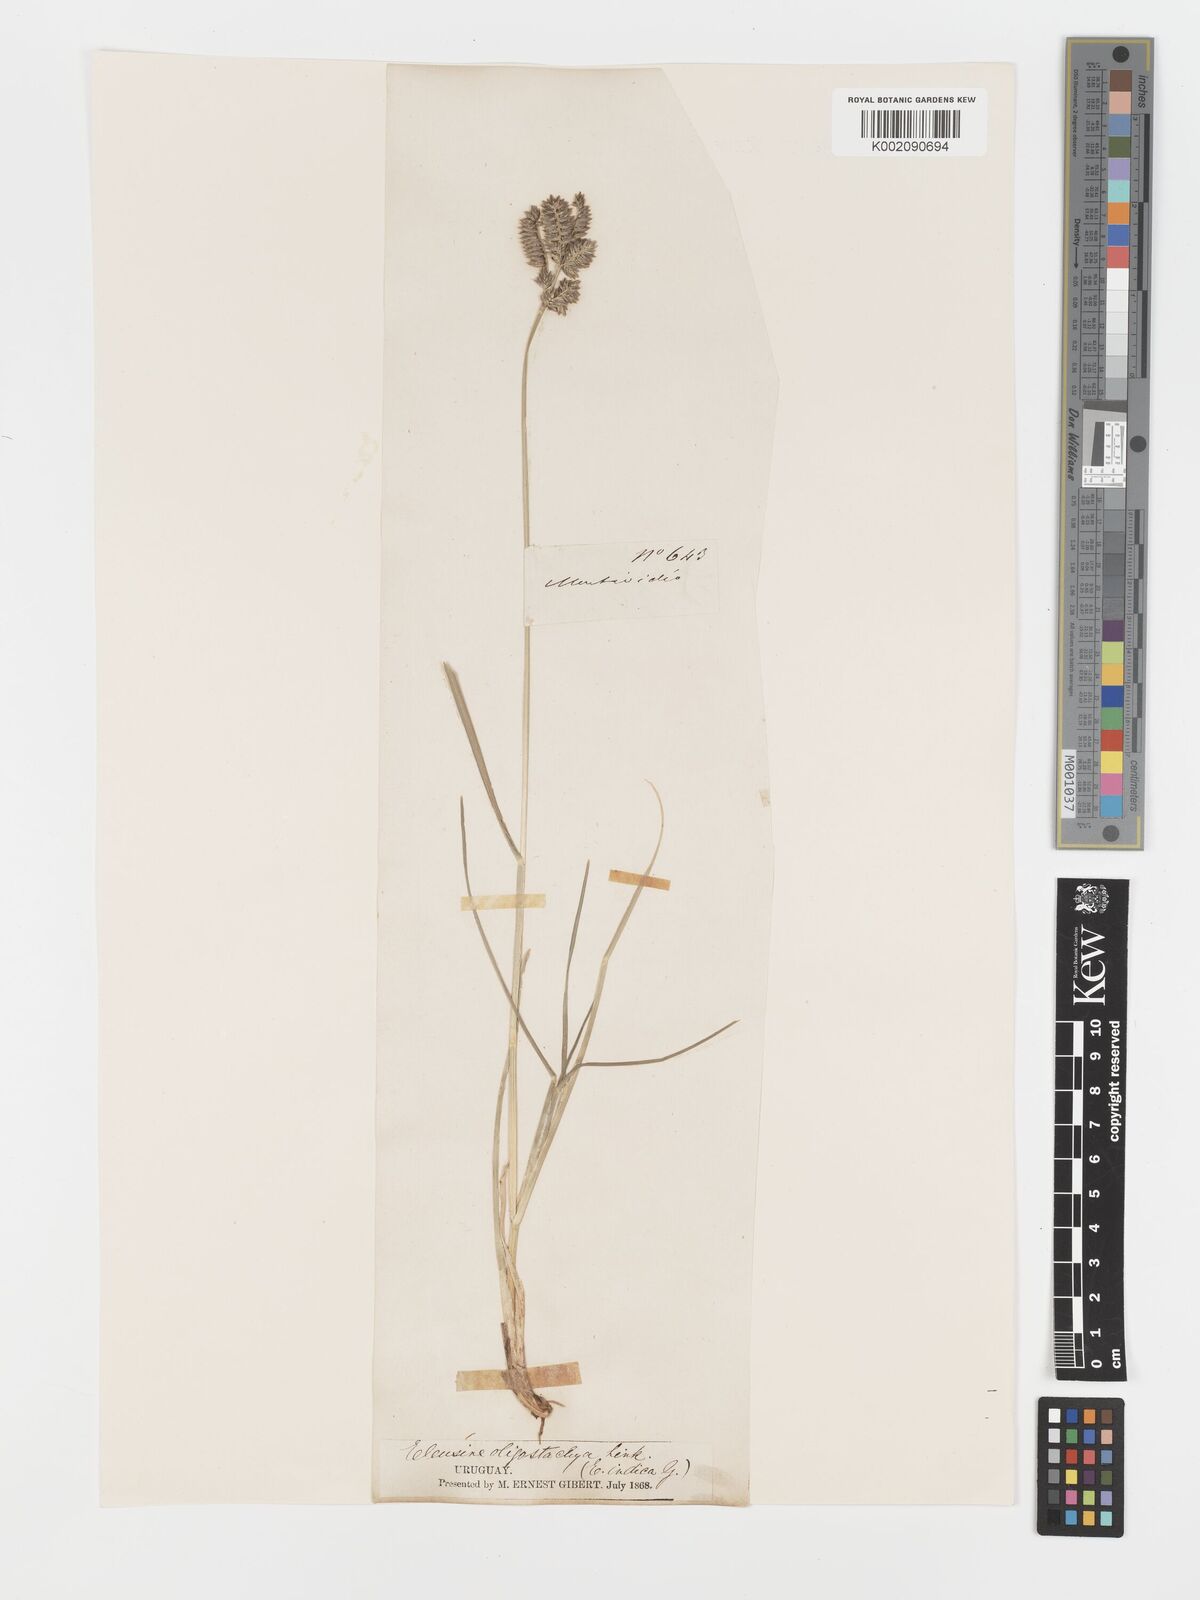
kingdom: Plantae
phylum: Tracheophyta
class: Liliopsida
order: Poales
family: Poaceae
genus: Eleusine
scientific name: Eleusine tristachya
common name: American yard-grass
